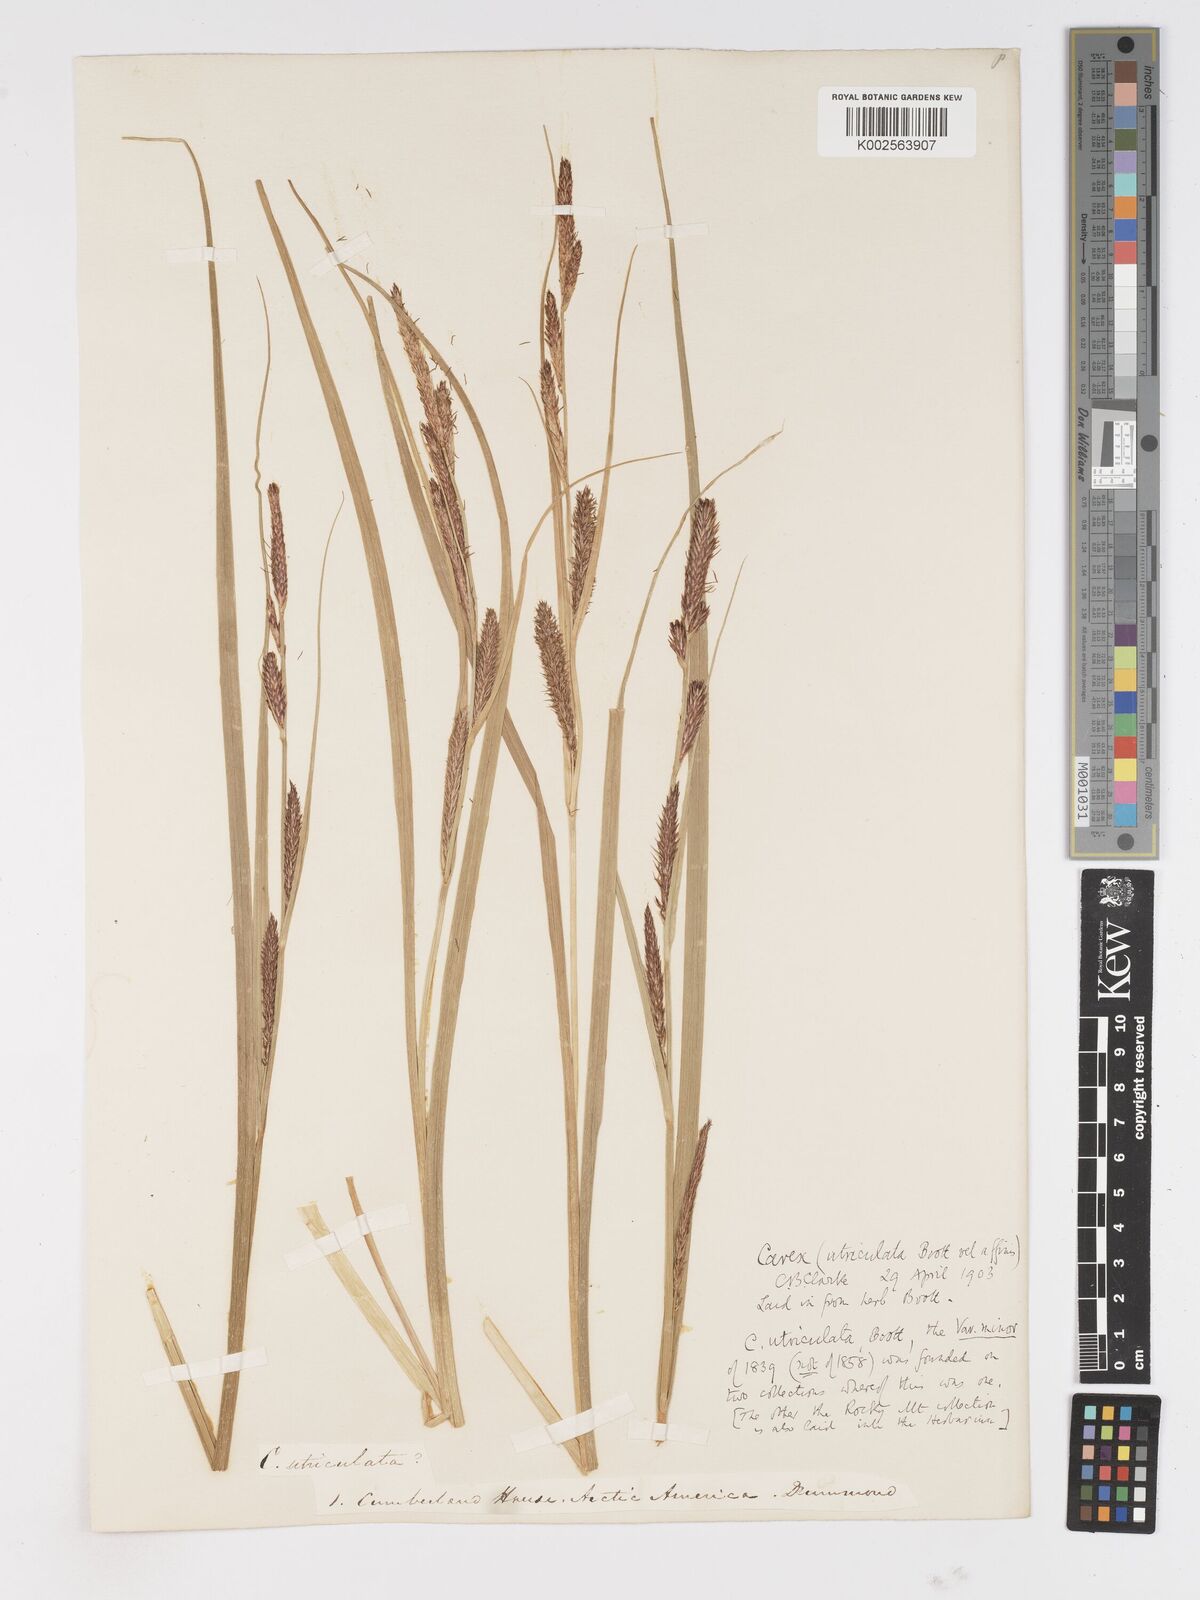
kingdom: Plantae
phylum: Tracheophyta
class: Liliopsida
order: Poales
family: Cyperaceae
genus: Carex
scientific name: Carex rostrata
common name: Bottle sedge
